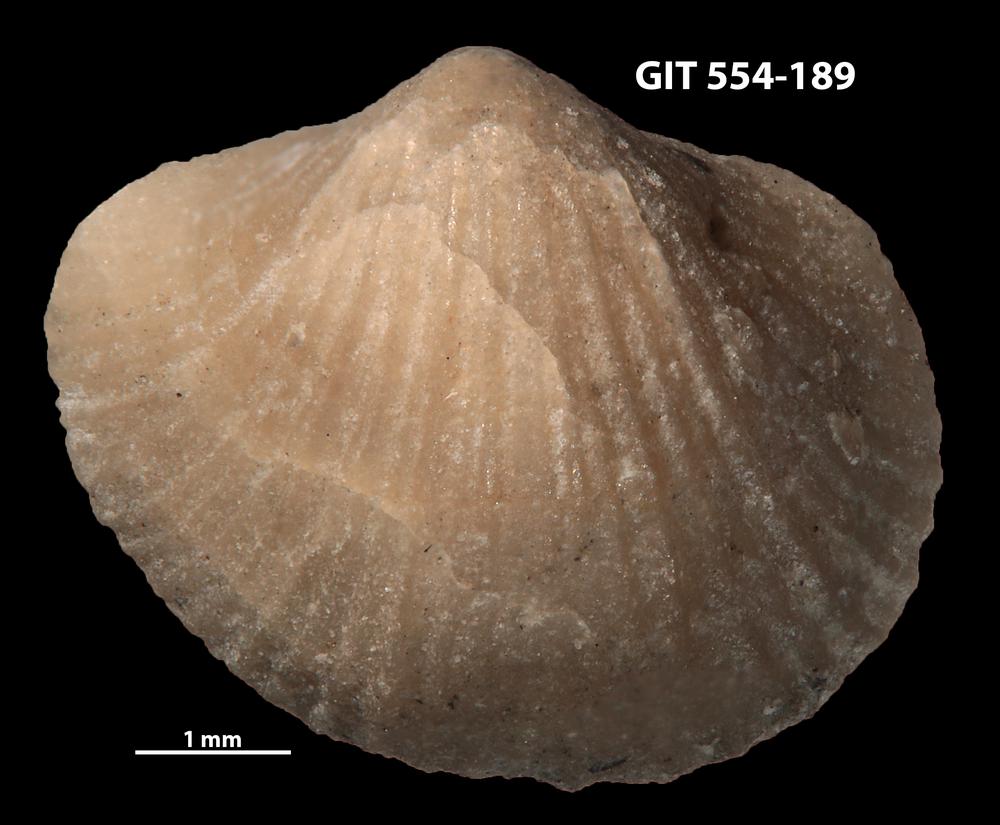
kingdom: Animalia
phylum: Brachiopoda
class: Rhynchonellata
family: Dalmanellidae
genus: Resserella
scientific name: Resserella Orthis elegantula
